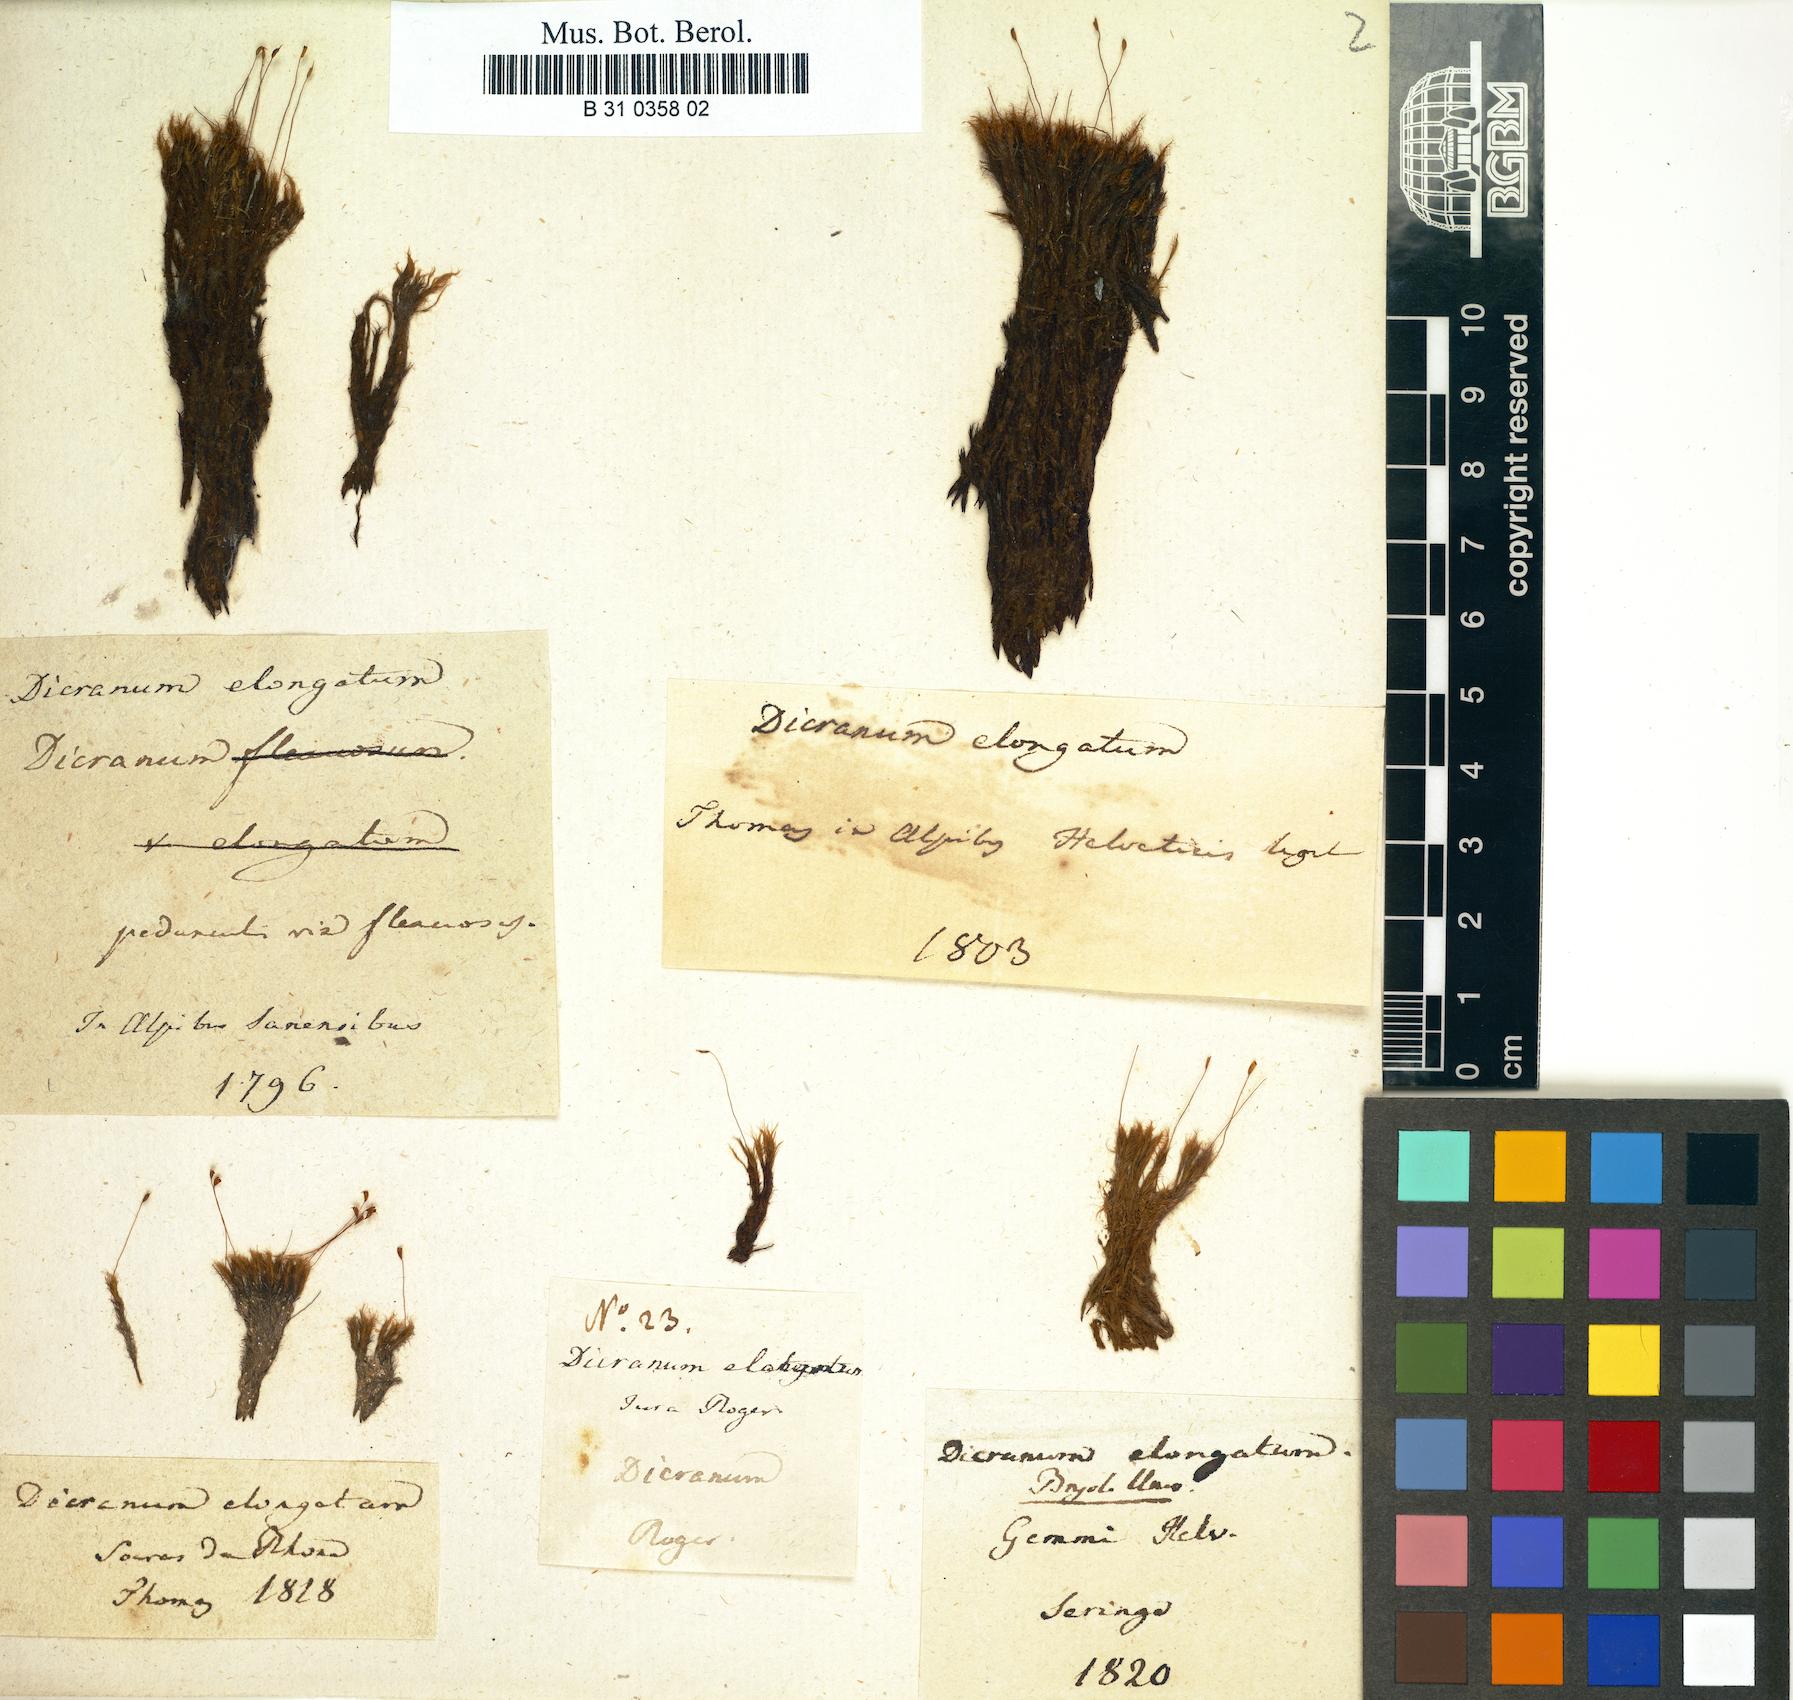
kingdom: Plantae
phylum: Bryophyta
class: Bryopsida
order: Dicranales
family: Dicranaceae
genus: Dicranum
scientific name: Dicranum elongatum
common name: Long-forked broom moss
